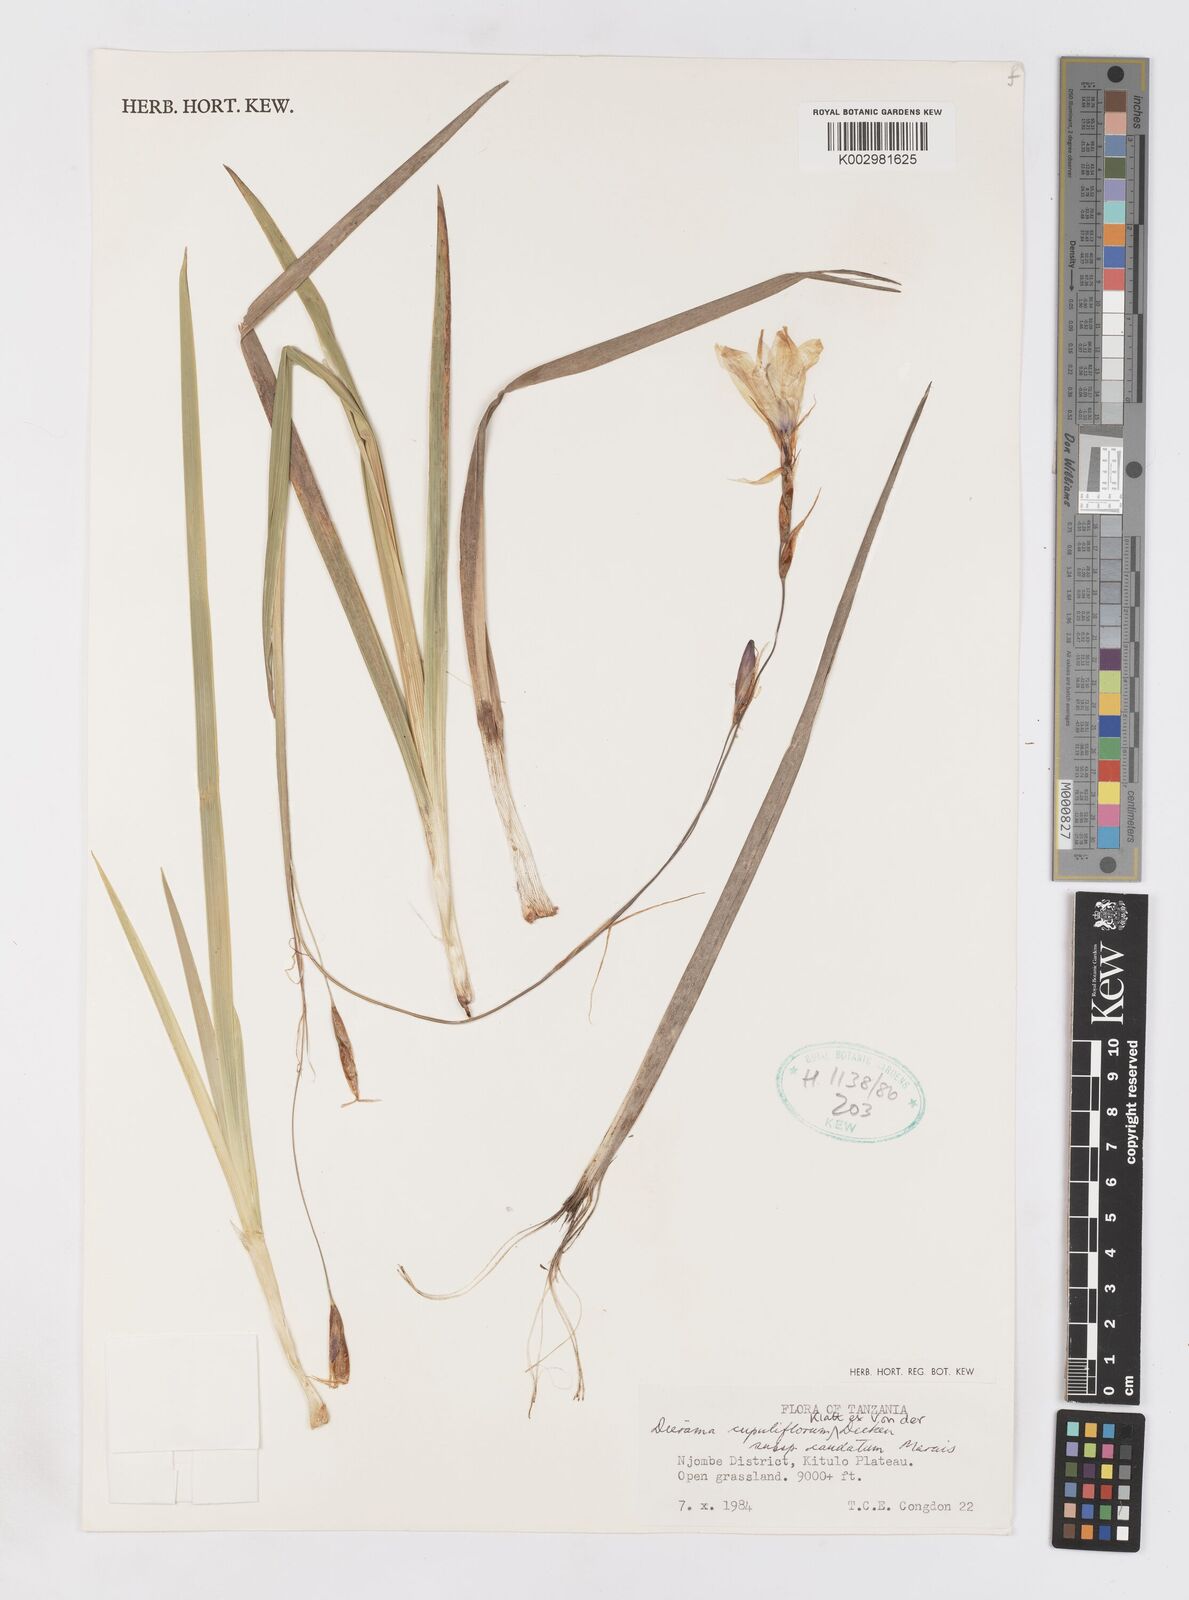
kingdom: Plantae
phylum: Tracheophyta
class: Liliopsida
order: Asparagales
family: Iridaceae
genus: Dierama
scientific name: Dierama cupuliflorum
